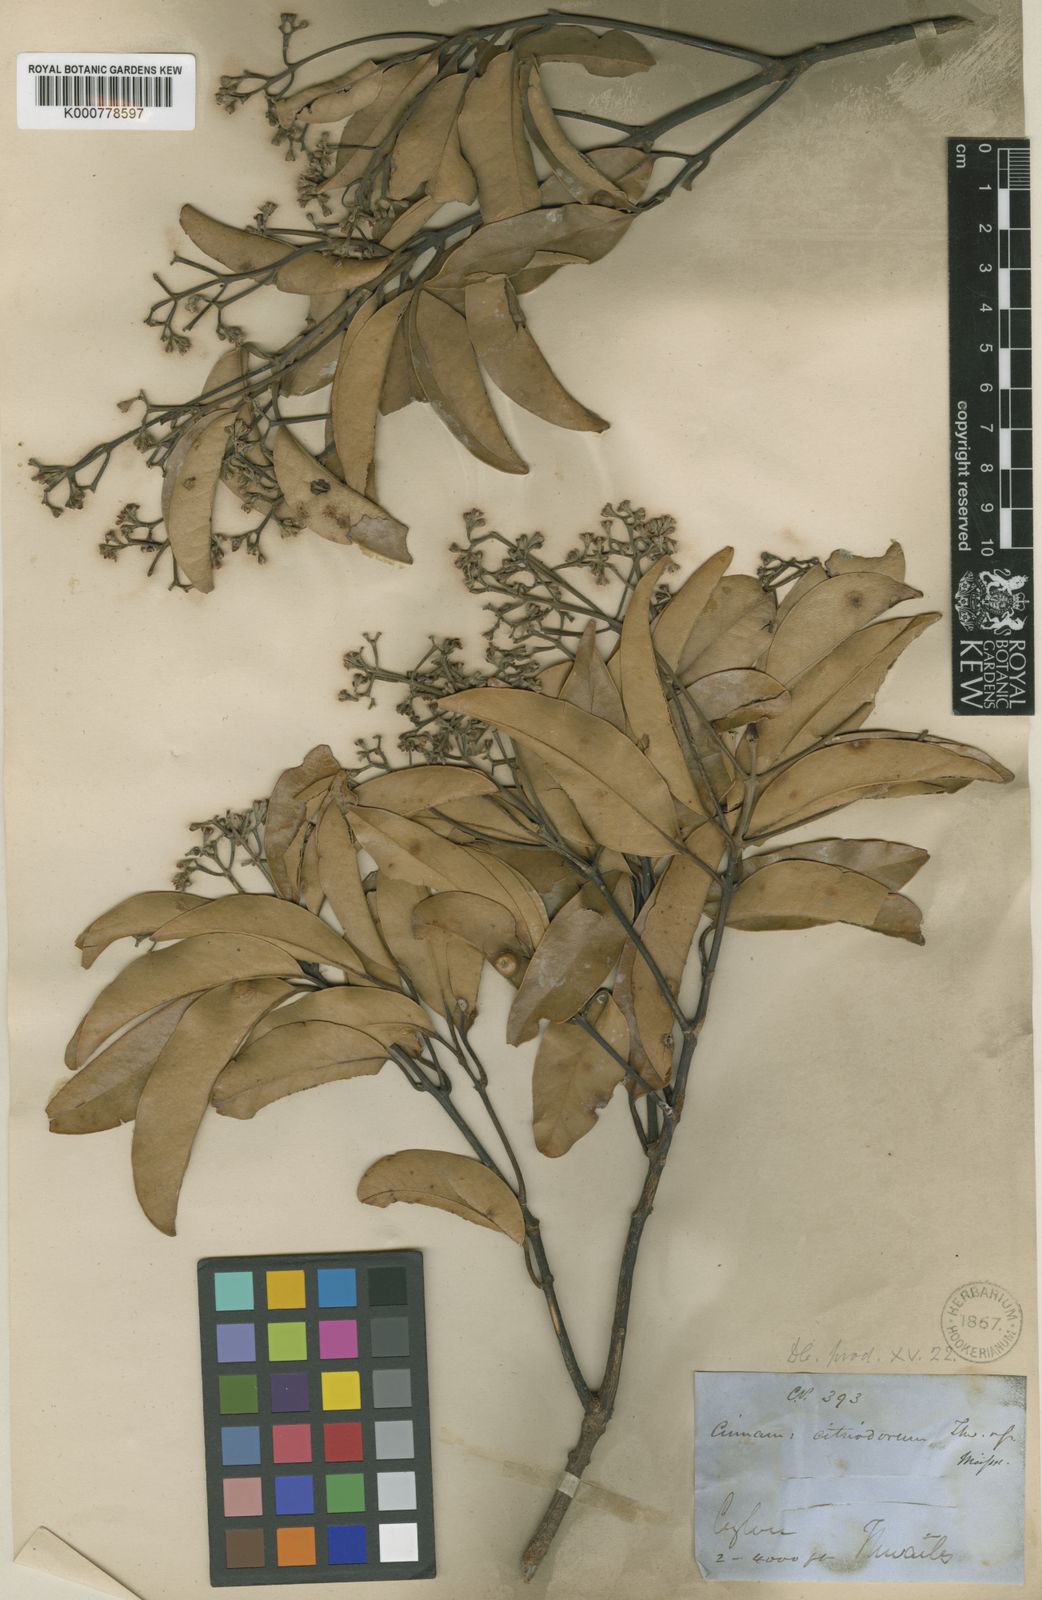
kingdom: Plantae
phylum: Tracheophyta
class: Magnoliopsida
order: Laurales
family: Lauraceae
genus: Cinnamomum
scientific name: Cinnamomum citriodorum
